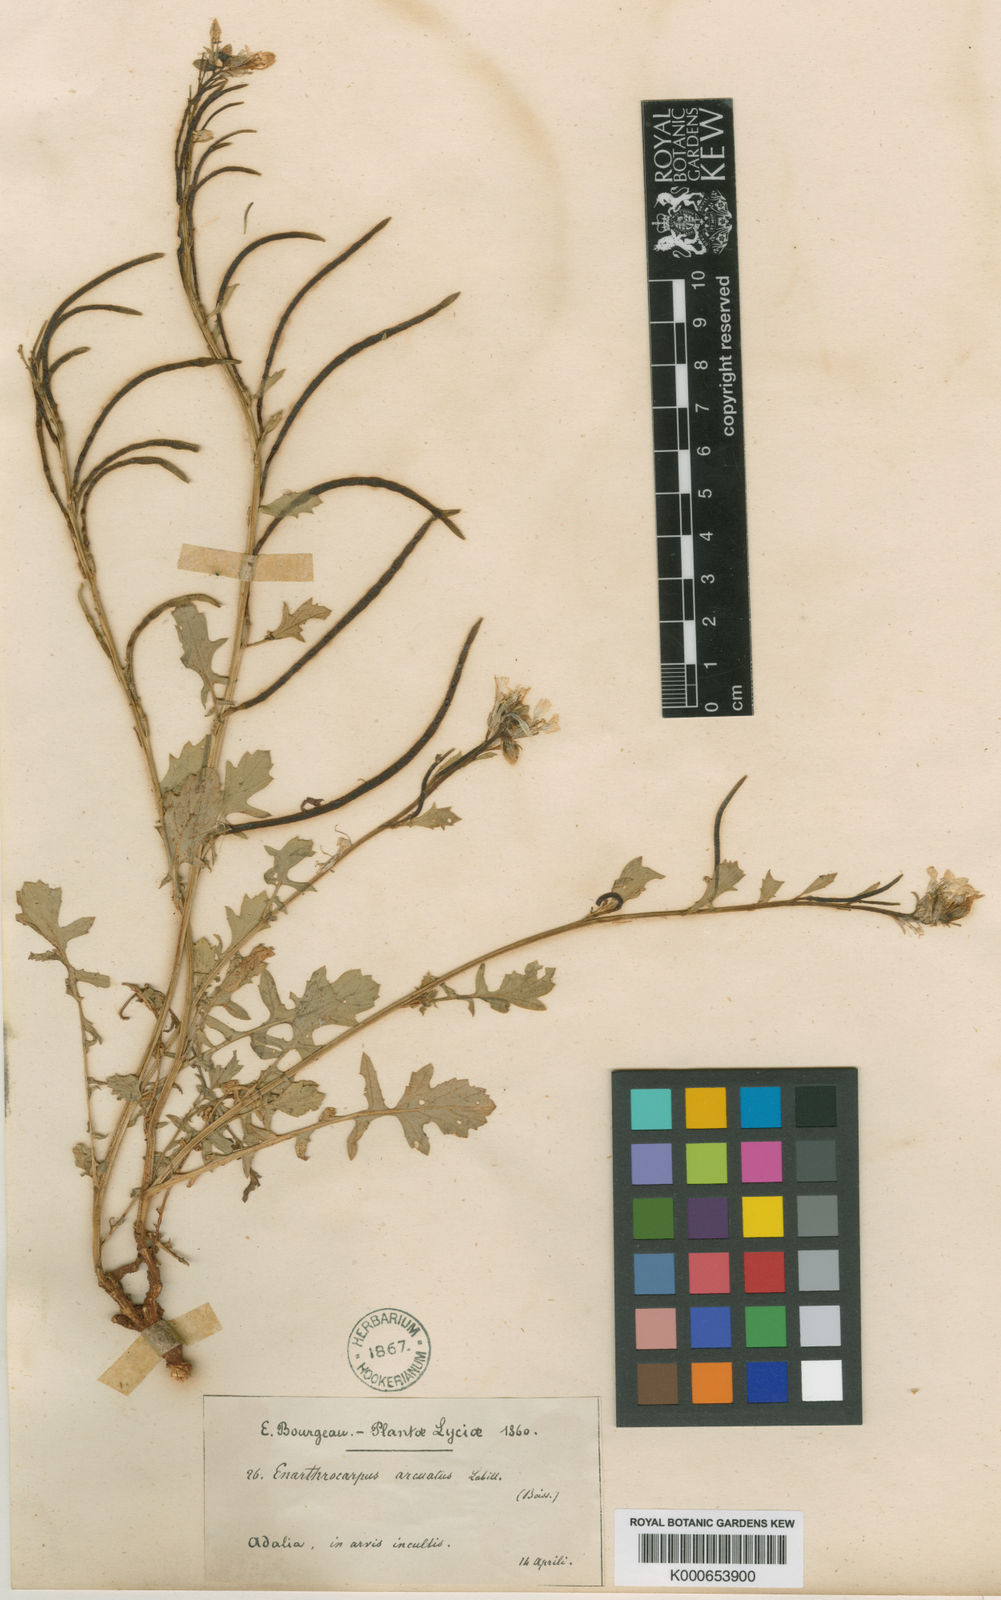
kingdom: Plantae
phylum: Tracheophyta
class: Magnoliopsida
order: Brassicales
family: Brassicaceae
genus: Enarthrocarpus
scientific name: Enarthrocarpus arcuatus
